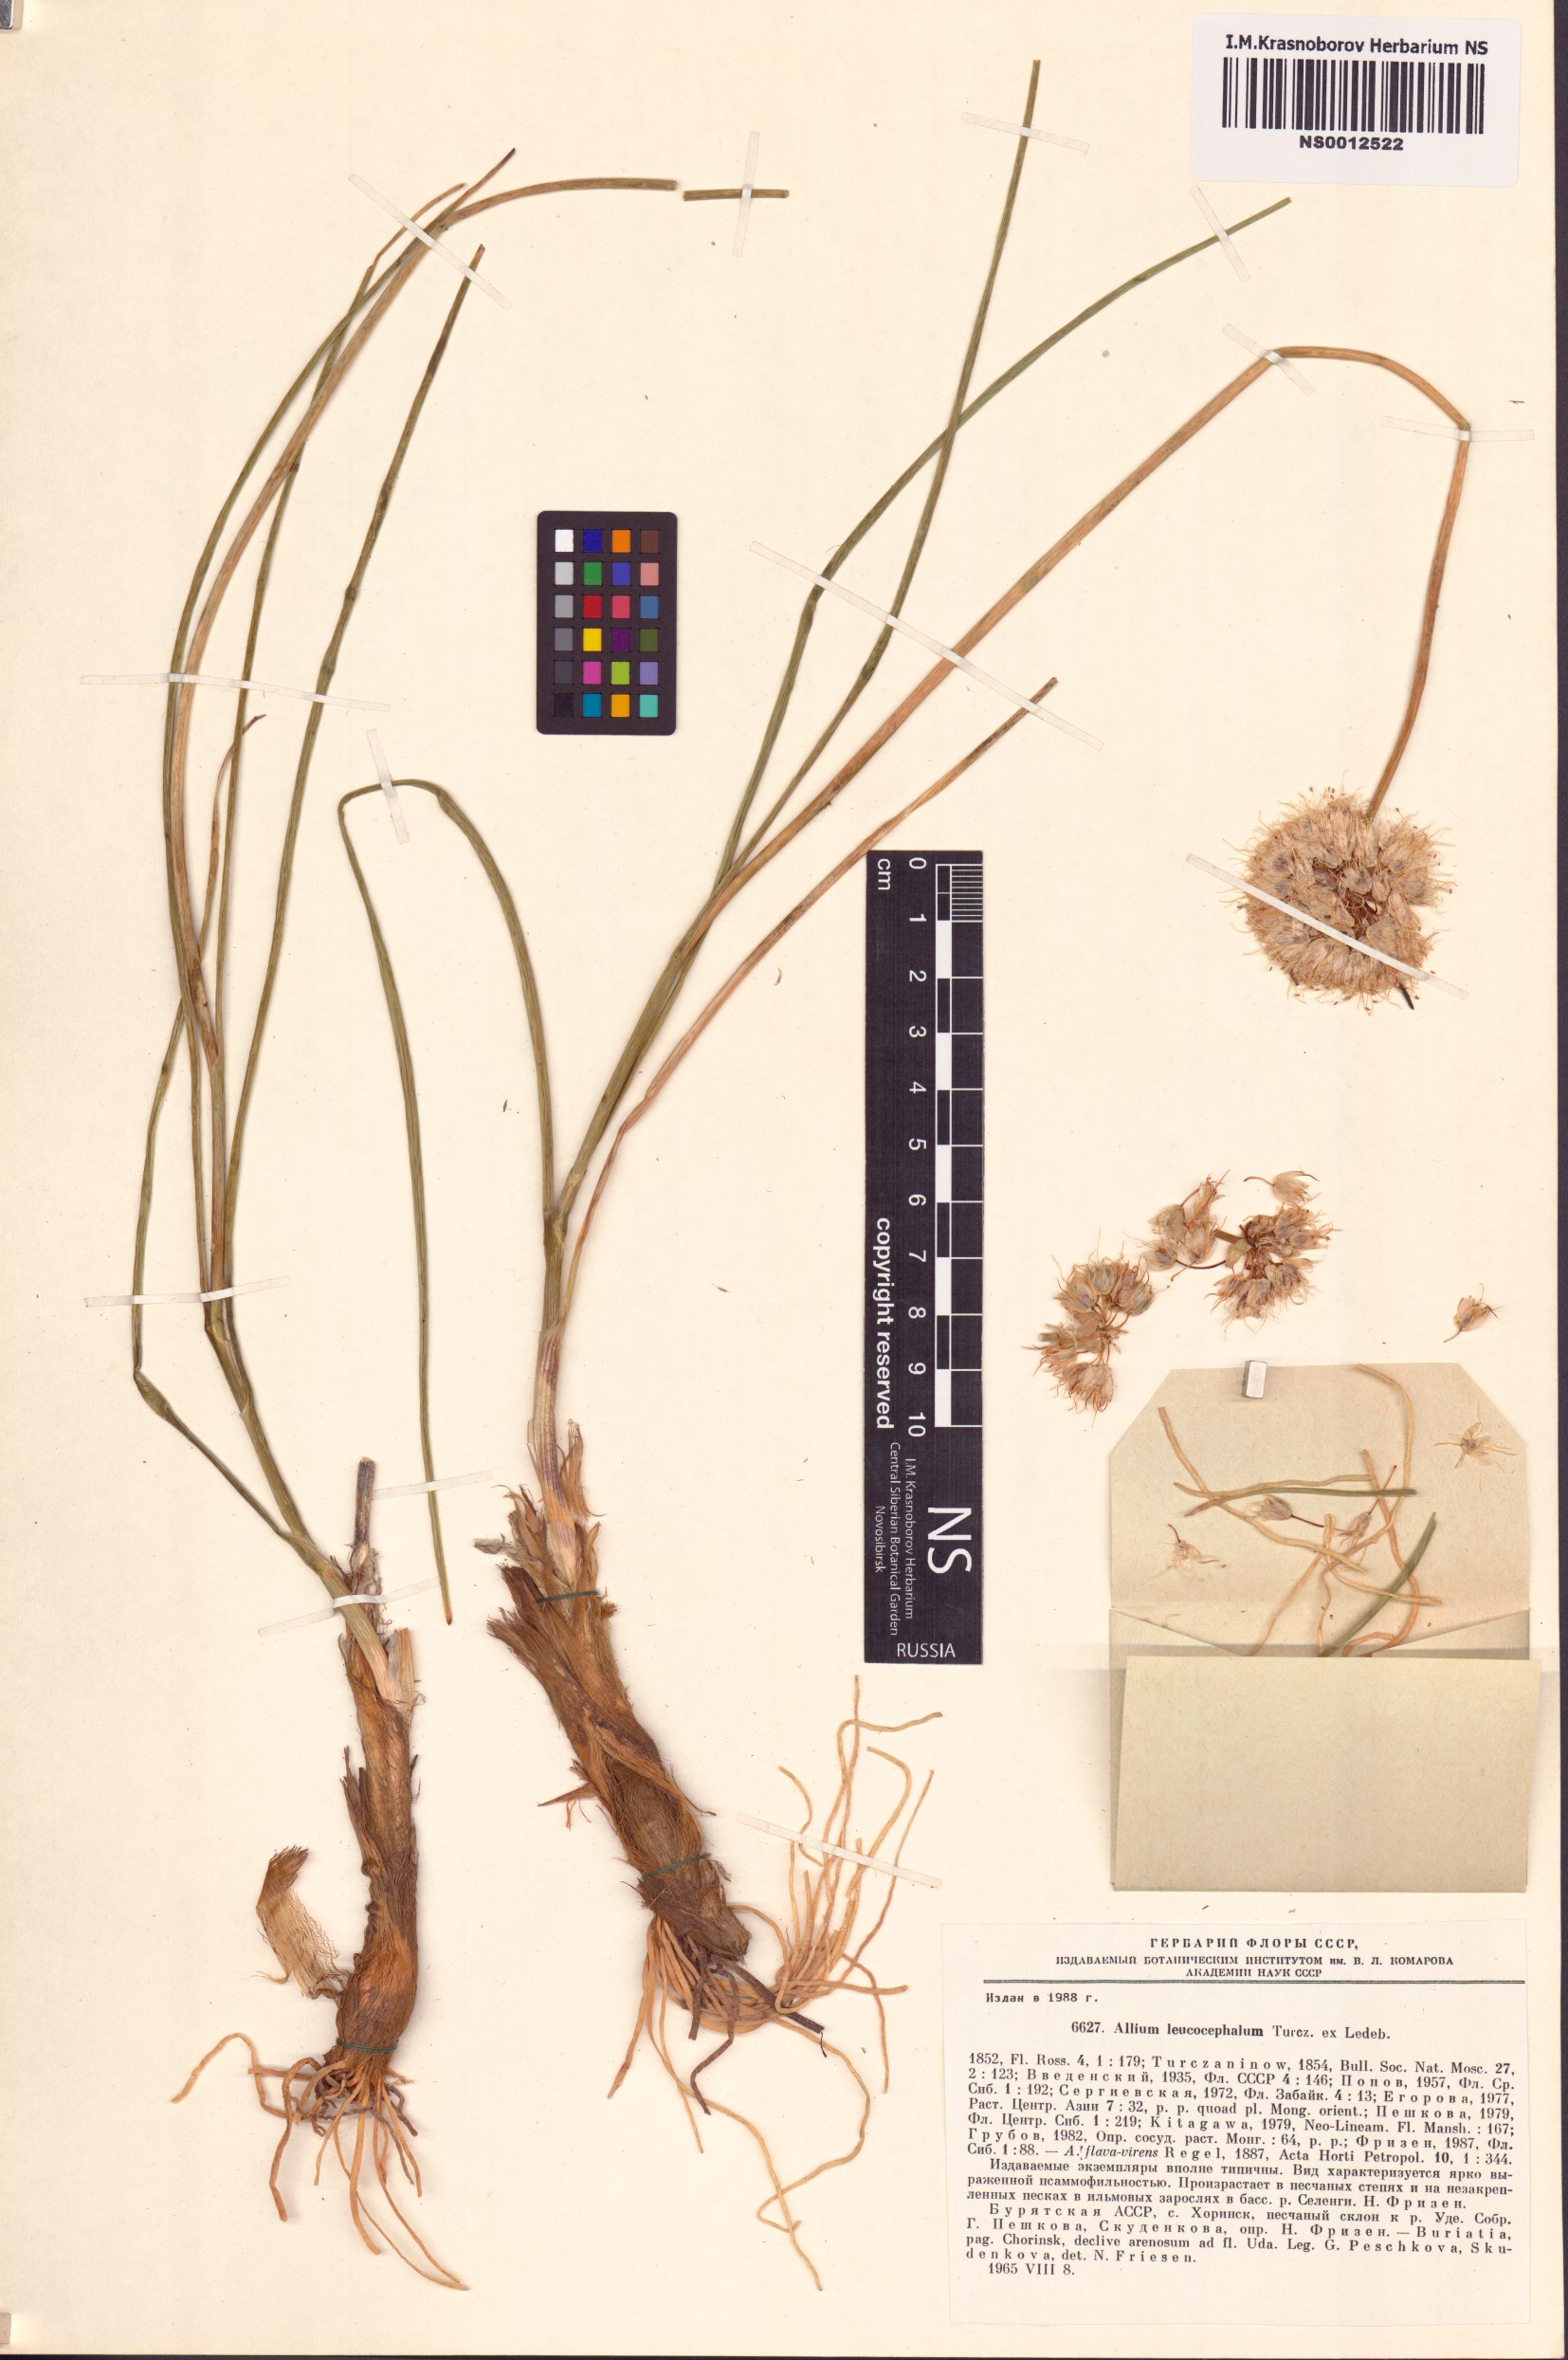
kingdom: Plantae
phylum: Tracheophyta
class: Liliopsida
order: Asparagales
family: Amaryllidaceae
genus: Allium
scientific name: Allium leucocephalum
